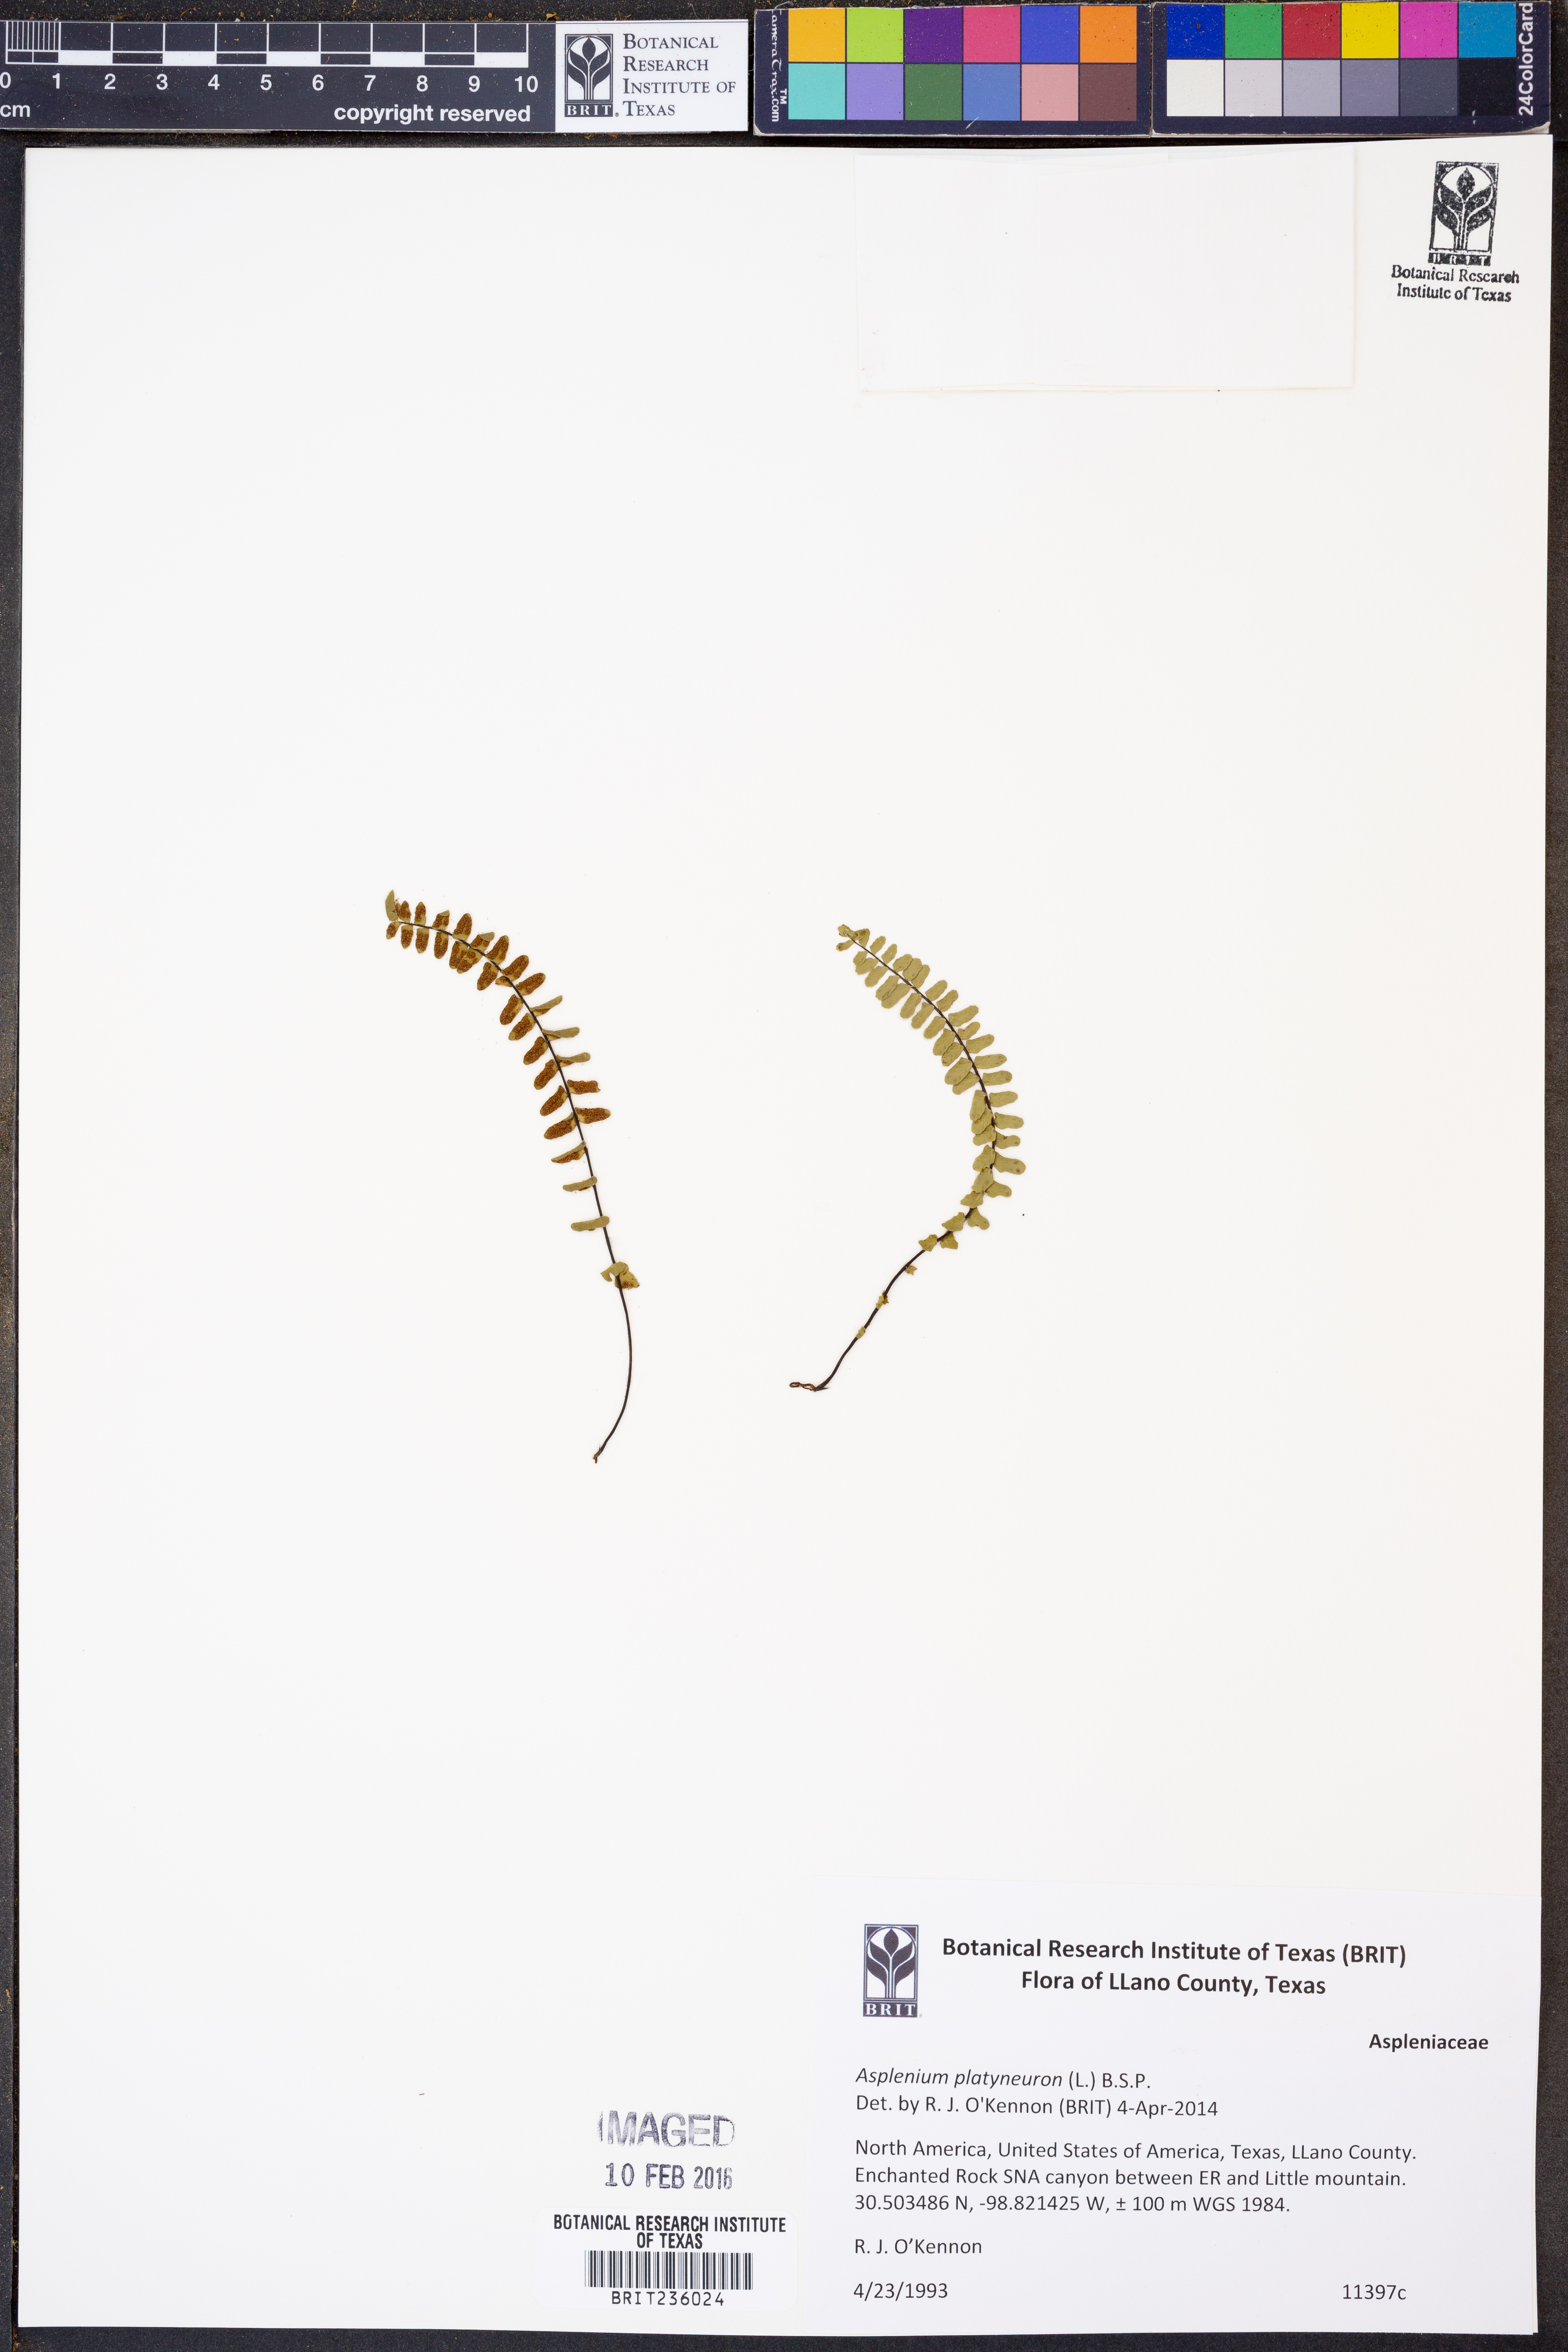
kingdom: Plantae
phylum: Tracheophyta
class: Polypodiopsida
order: Polypodiales
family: Aspleniaceae
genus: Asplenium
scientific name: Asplenium platyneuron
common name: Ebony spleenwort
